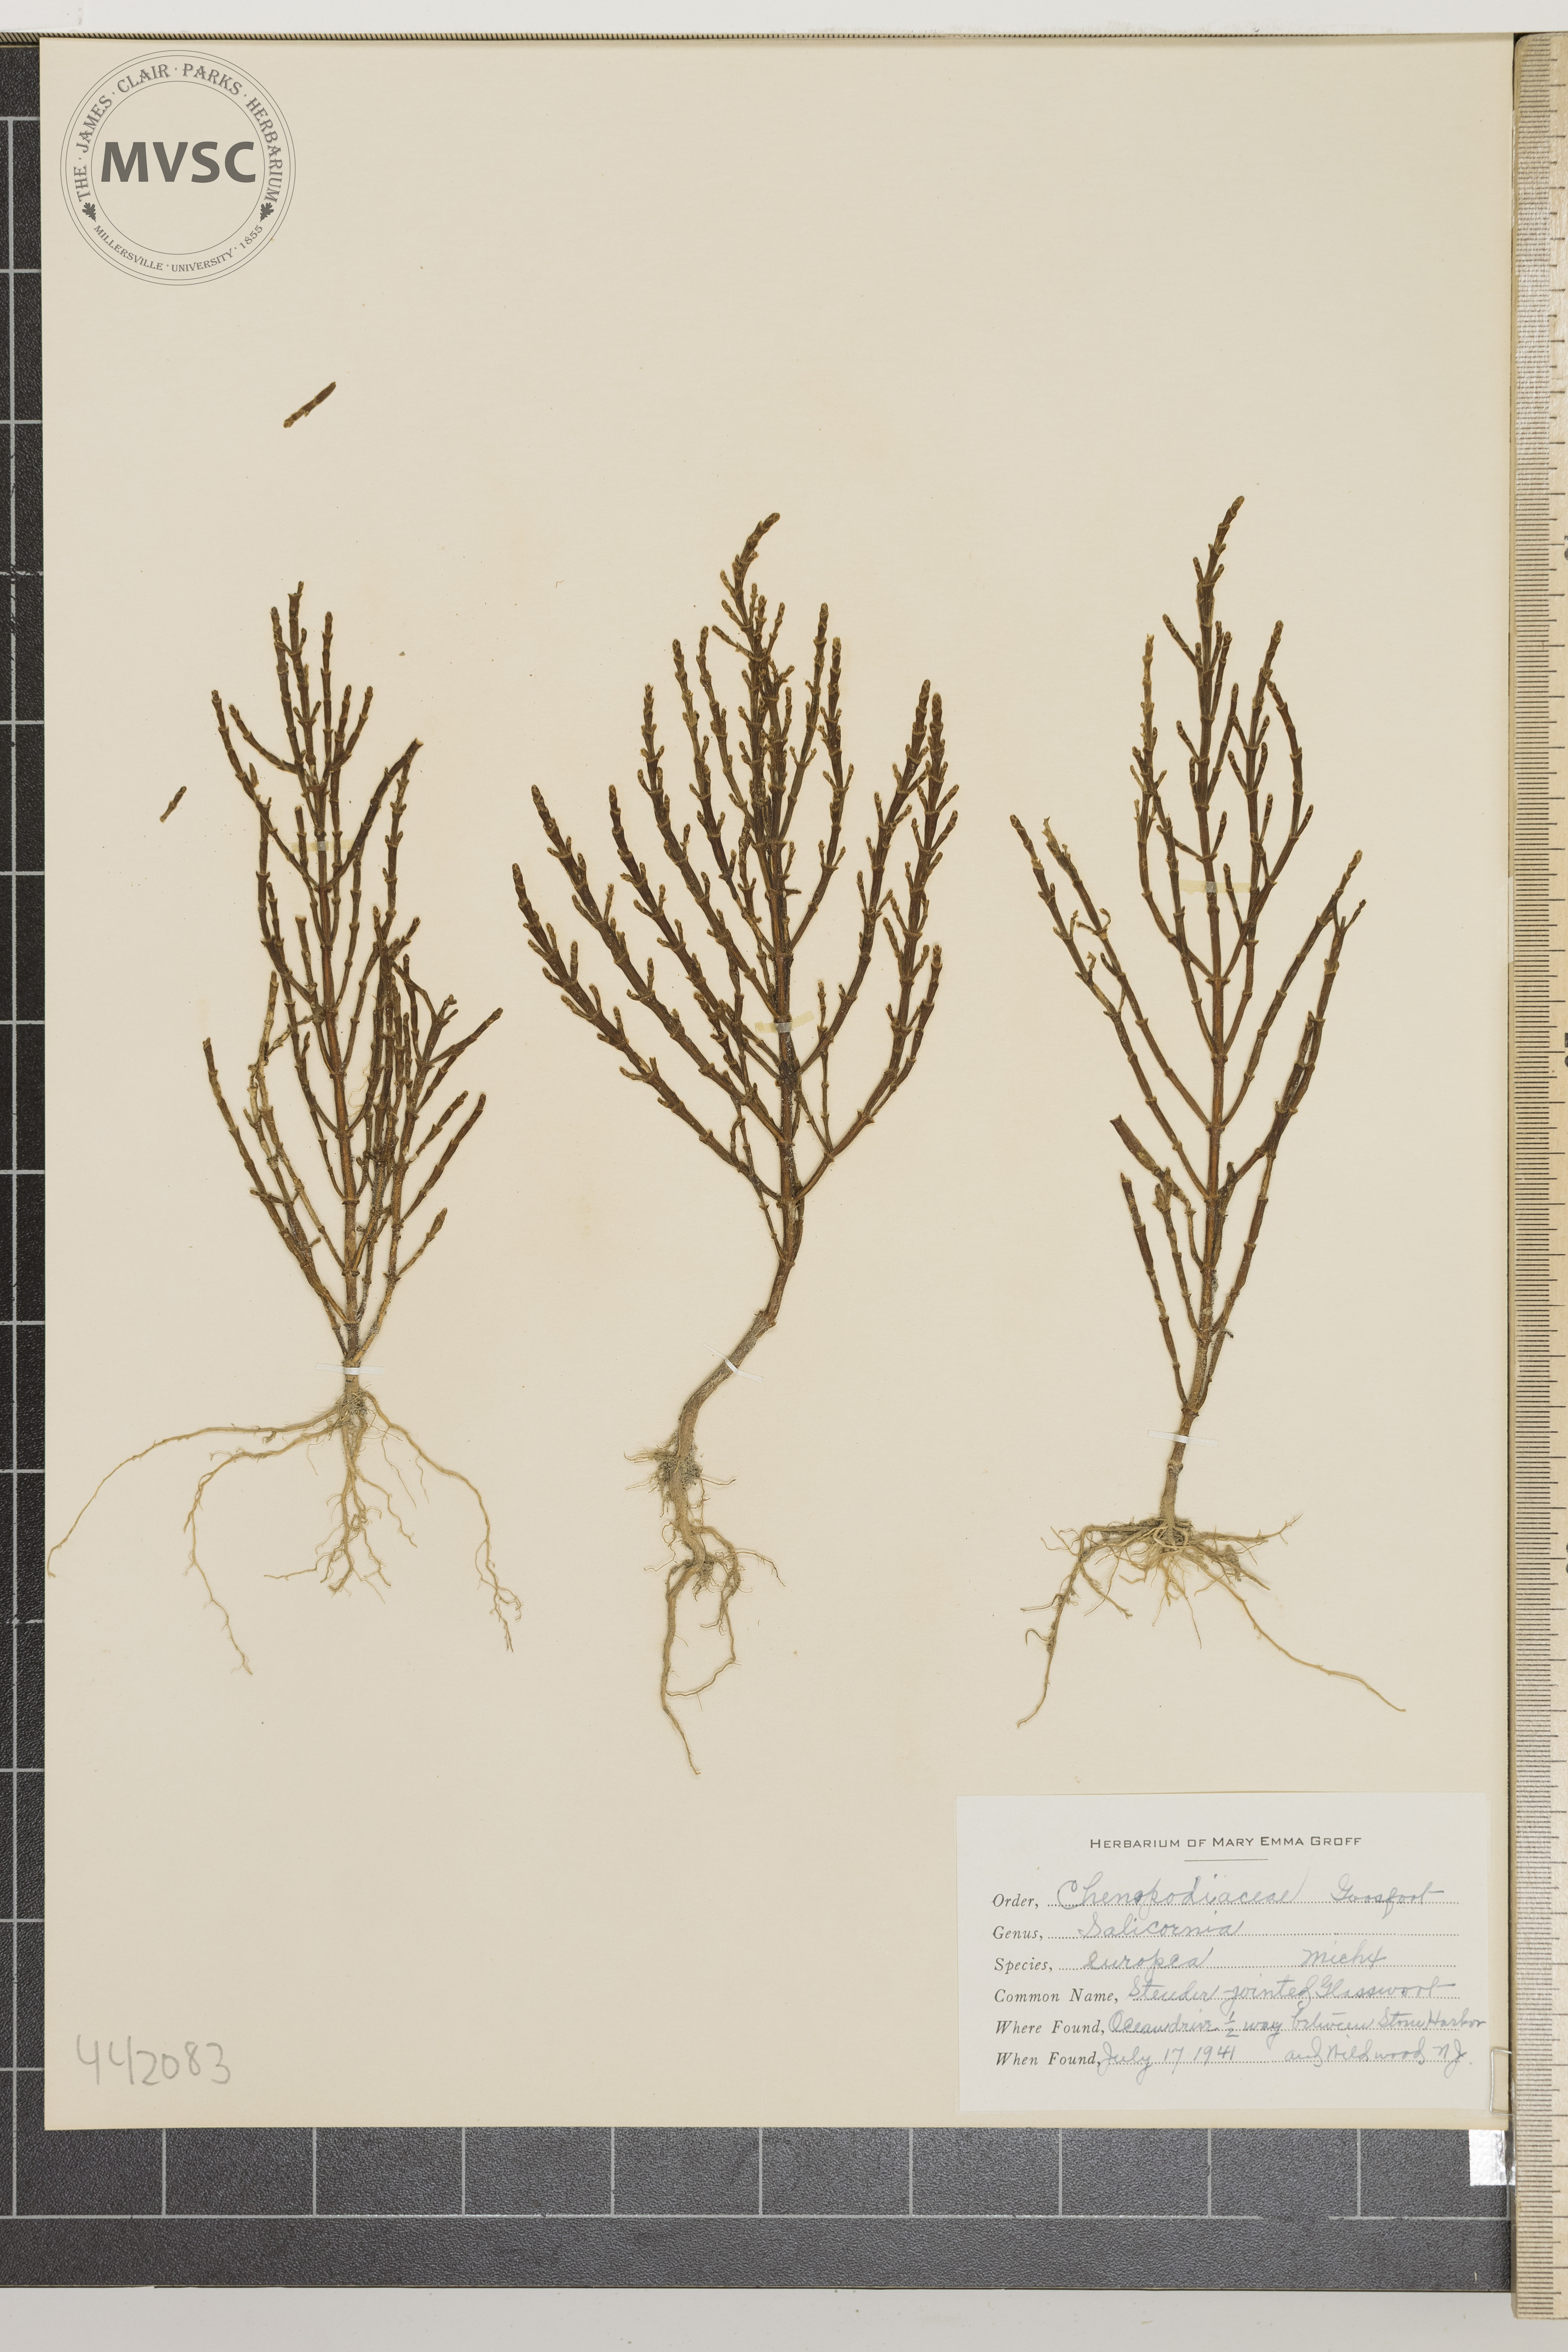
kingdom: Plantae
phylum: Tracheophyta
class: Magnoliopsida
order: Caryophyllales
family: Amaranthaceae
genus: Salicornia
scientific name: Salicornia europaea
